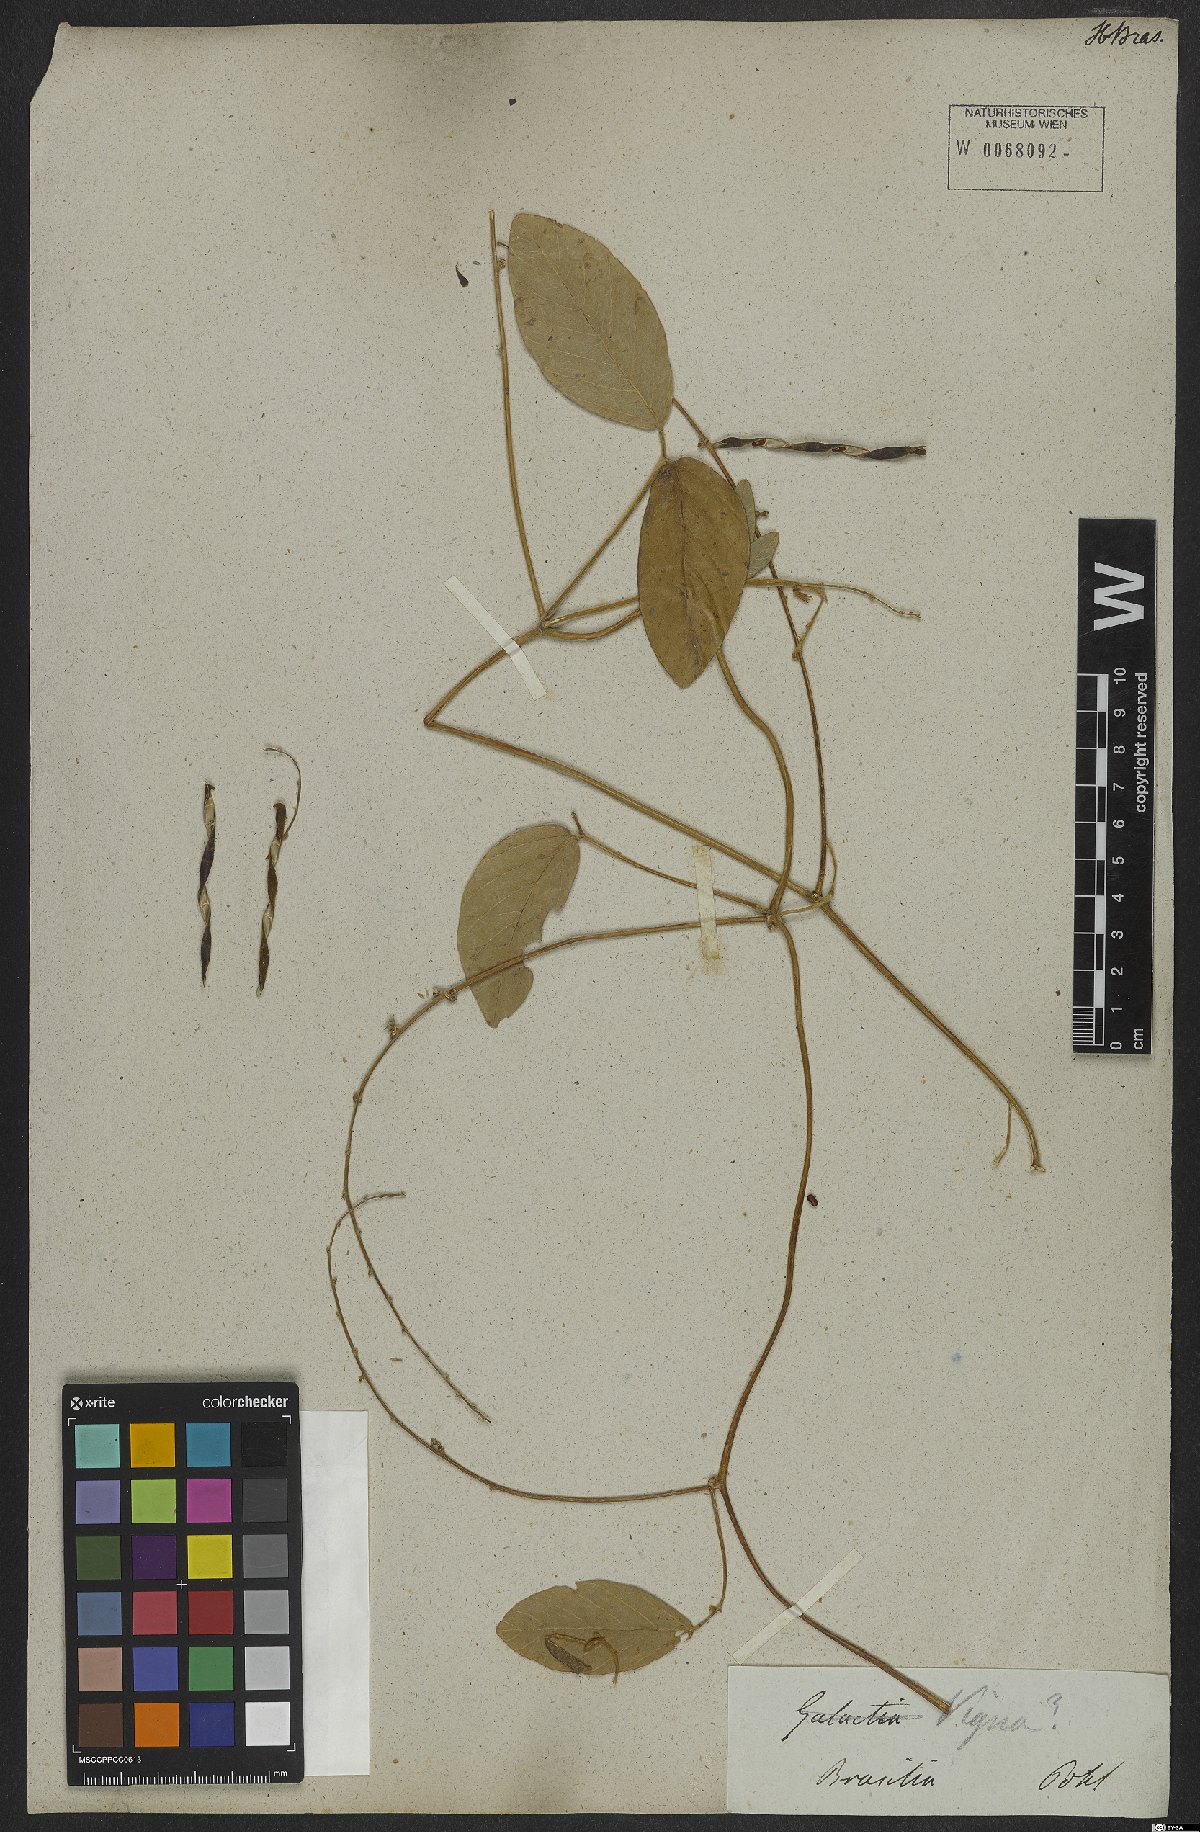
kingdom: Plantae
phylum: Tracheophyta
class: Magnoliopsida
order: Fabales
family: Fabaceae
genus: Teramnus
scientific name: Teramnus
